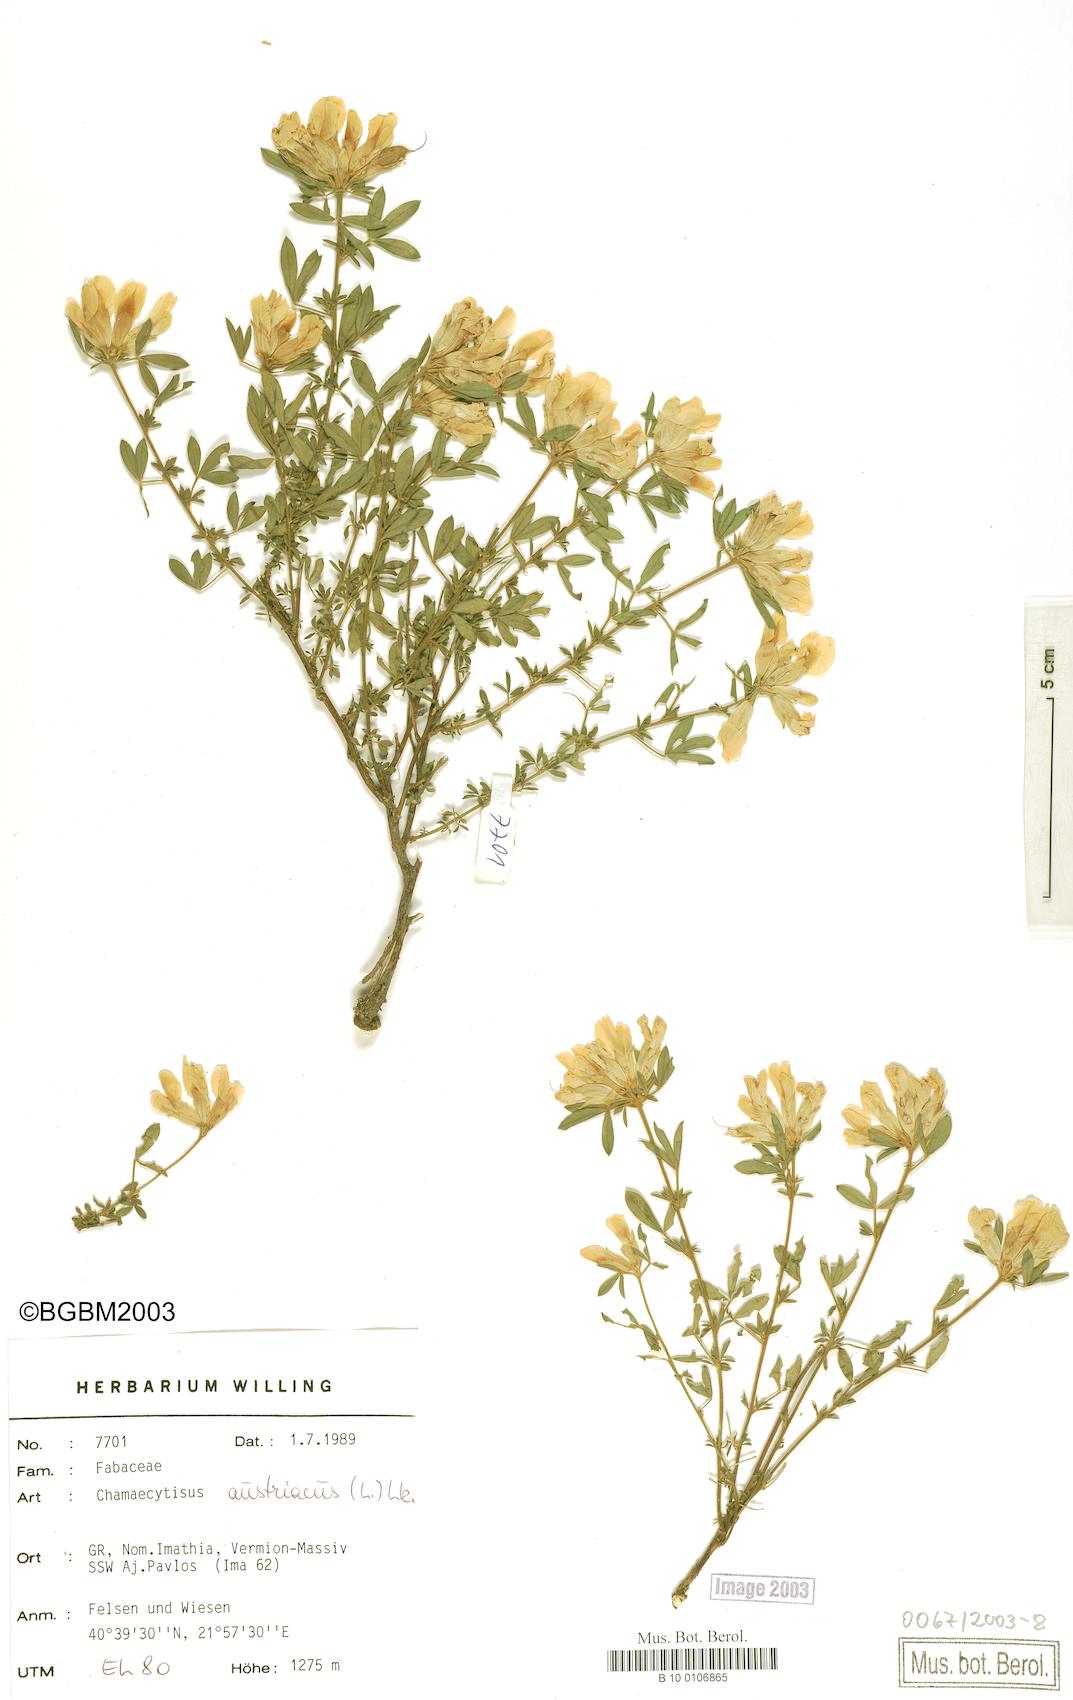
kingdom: Plantae
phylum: Tracheophyta
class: Magnoliopsida
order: Fabales
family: Fabaceae
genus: Chamaecytisus
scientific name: Chamaecytisus austriacus
